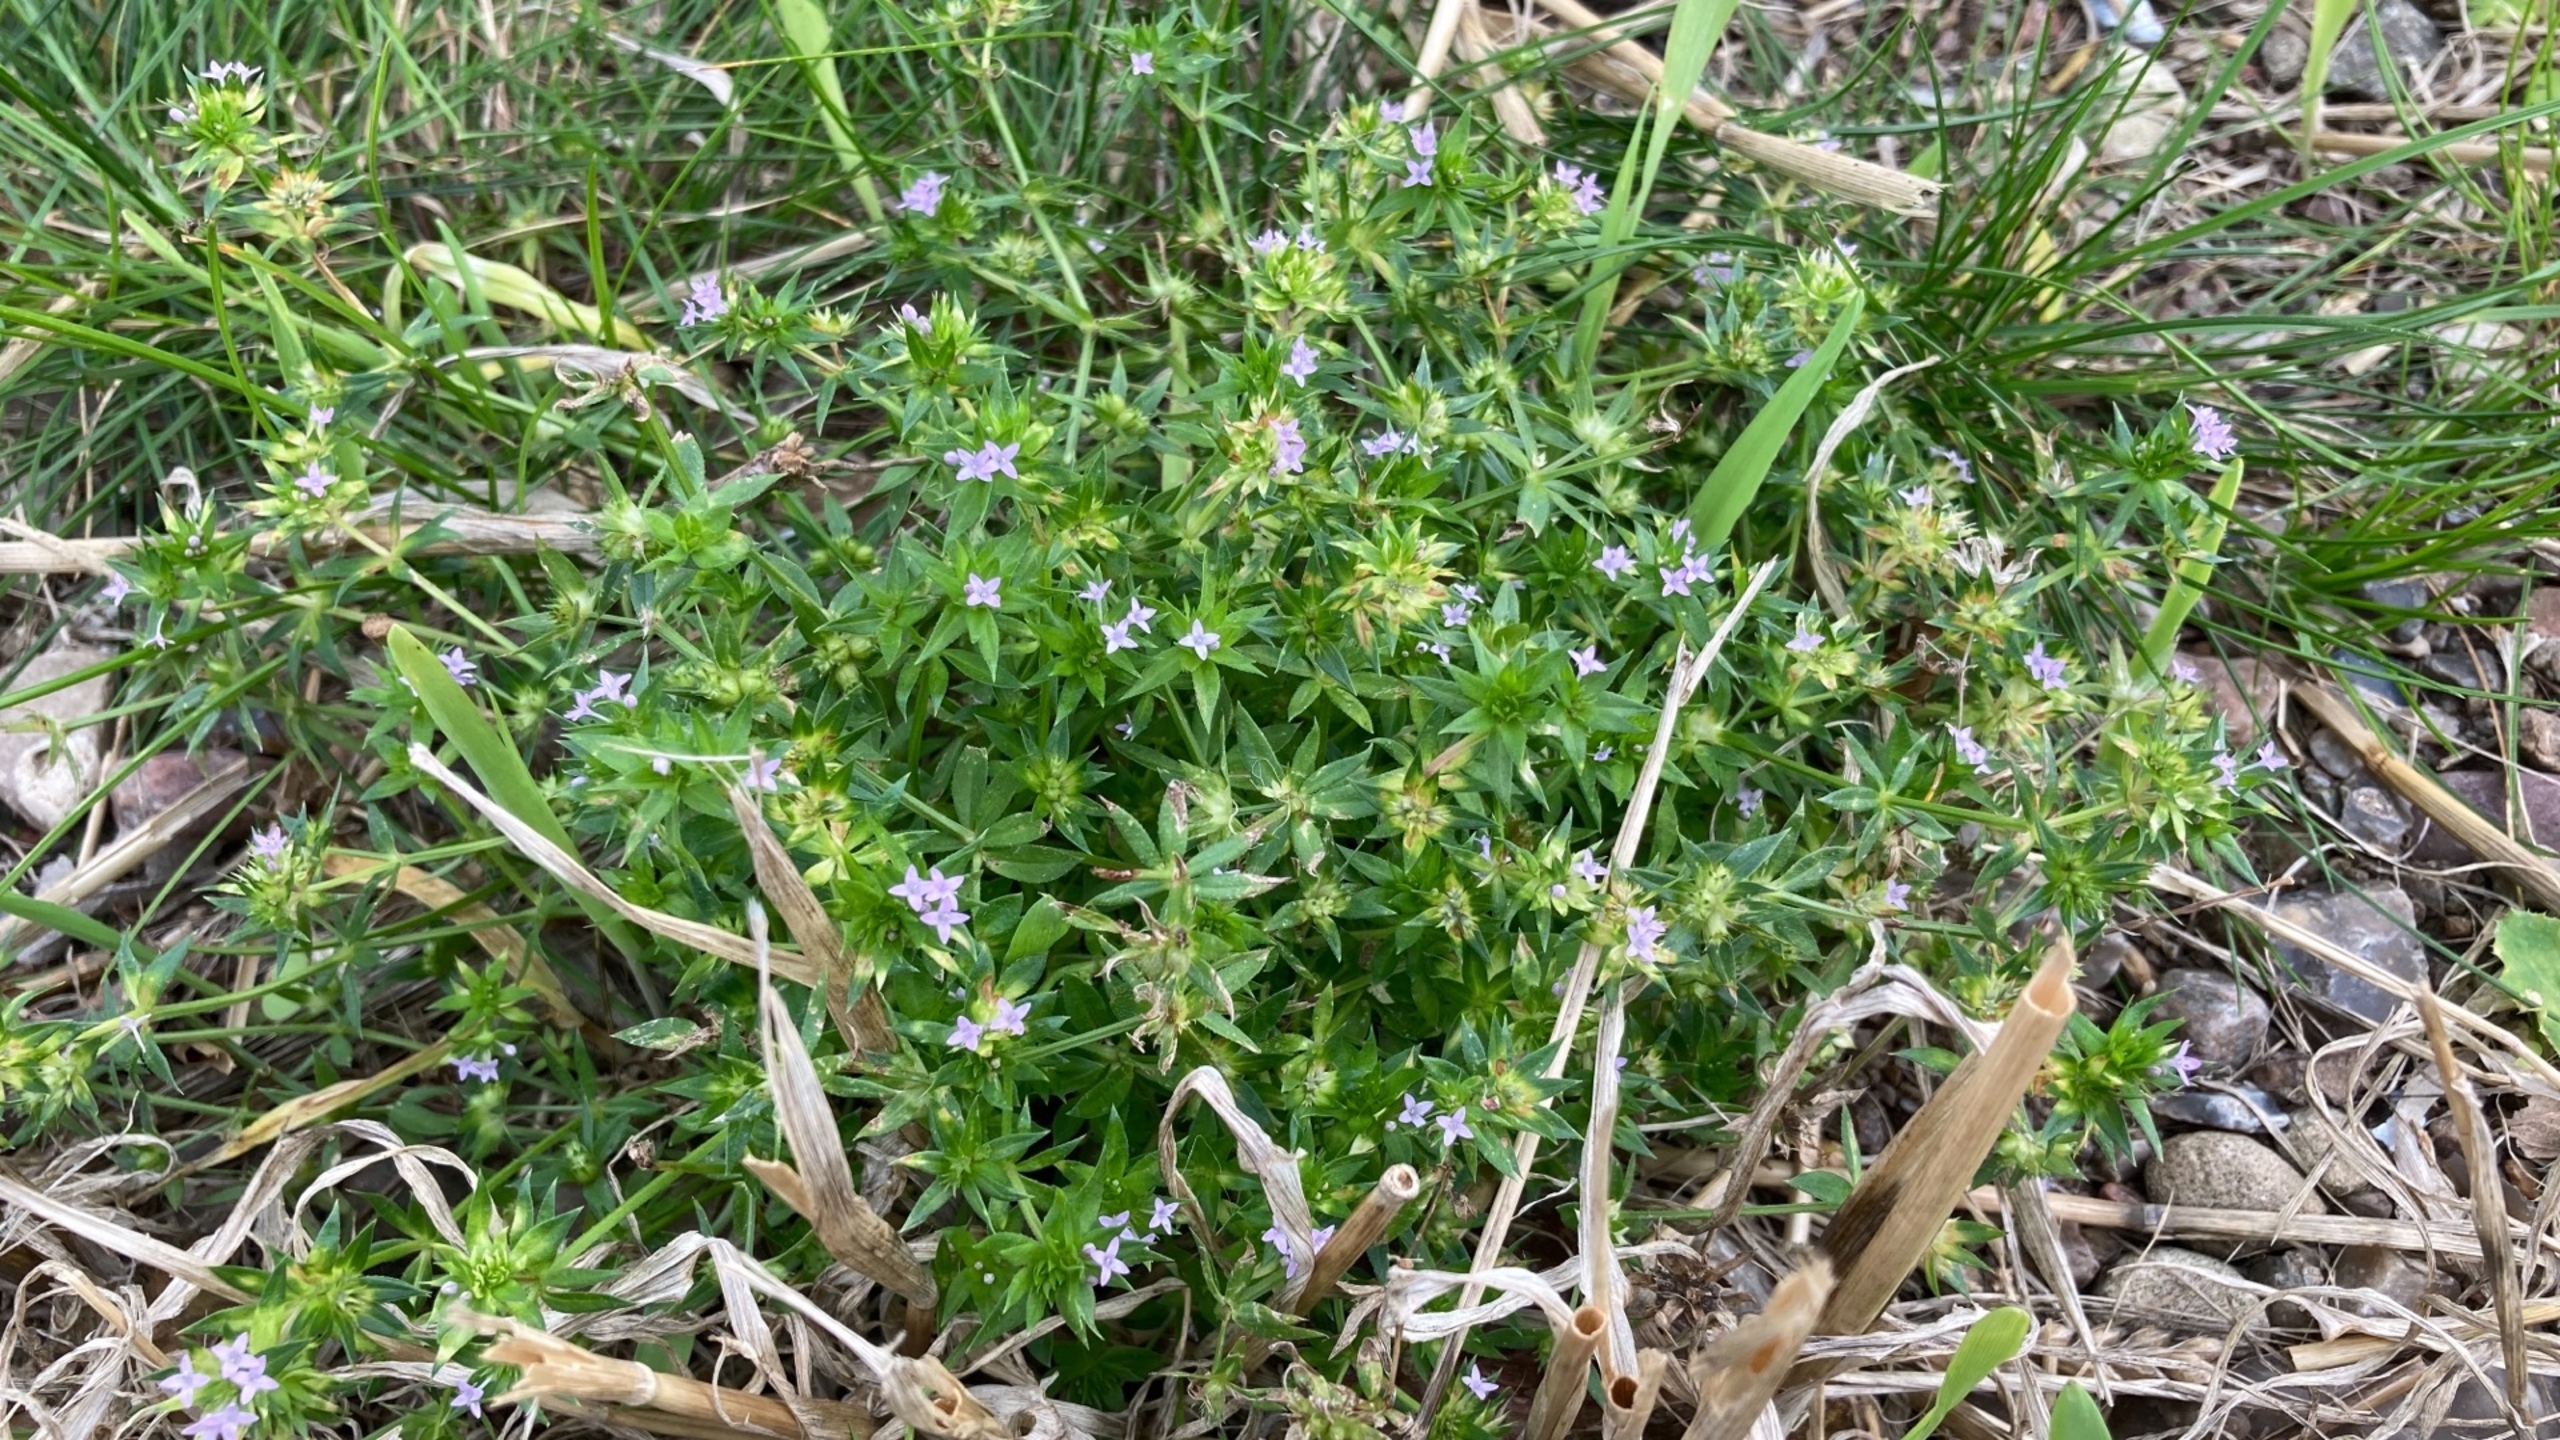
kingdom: Plantae
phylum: Tracheophyta
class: Magnoliopsida
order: Gentianales
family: Rubiaceae
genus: Sherardia
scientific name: Sherardia arvensis
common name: Blåstjerne
